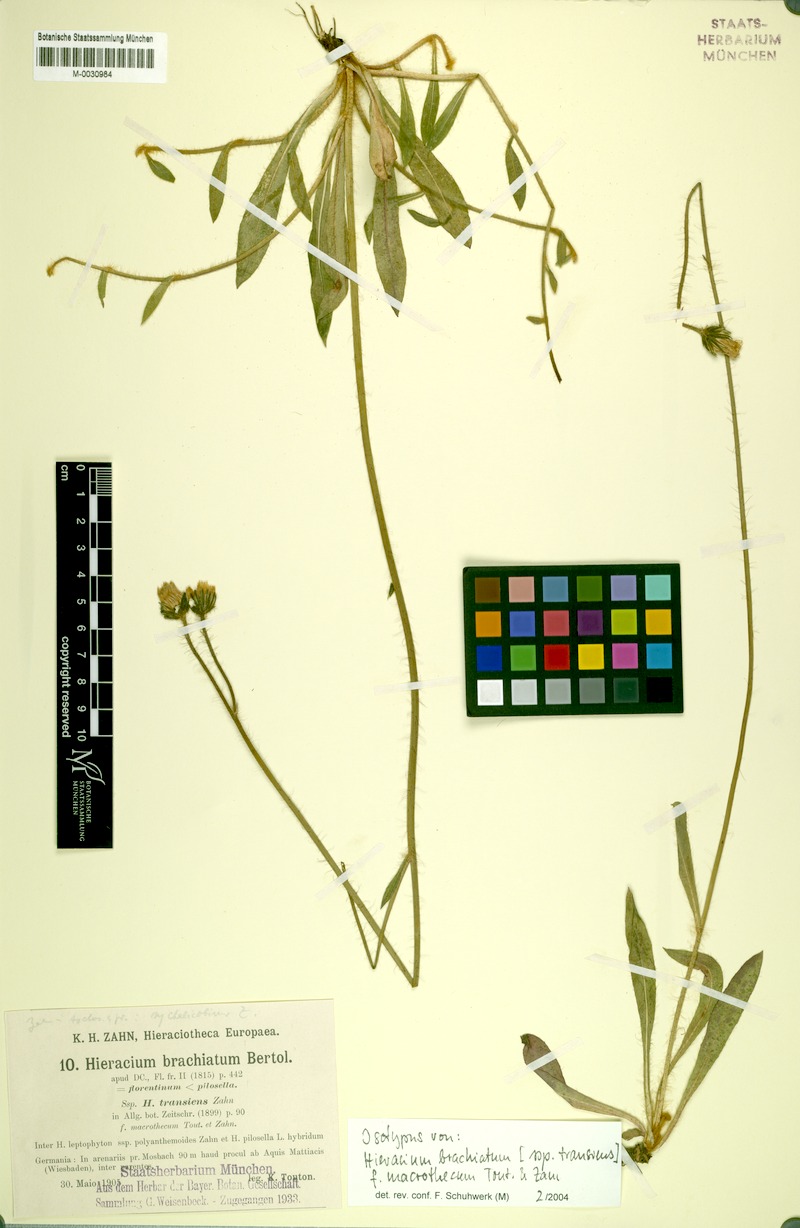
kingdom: Plantae
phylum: Tracheophyta
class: Magnoliopsida
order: Asterales
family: Asteraceae
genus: Pilosella
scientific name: Pilosella acutifolia
